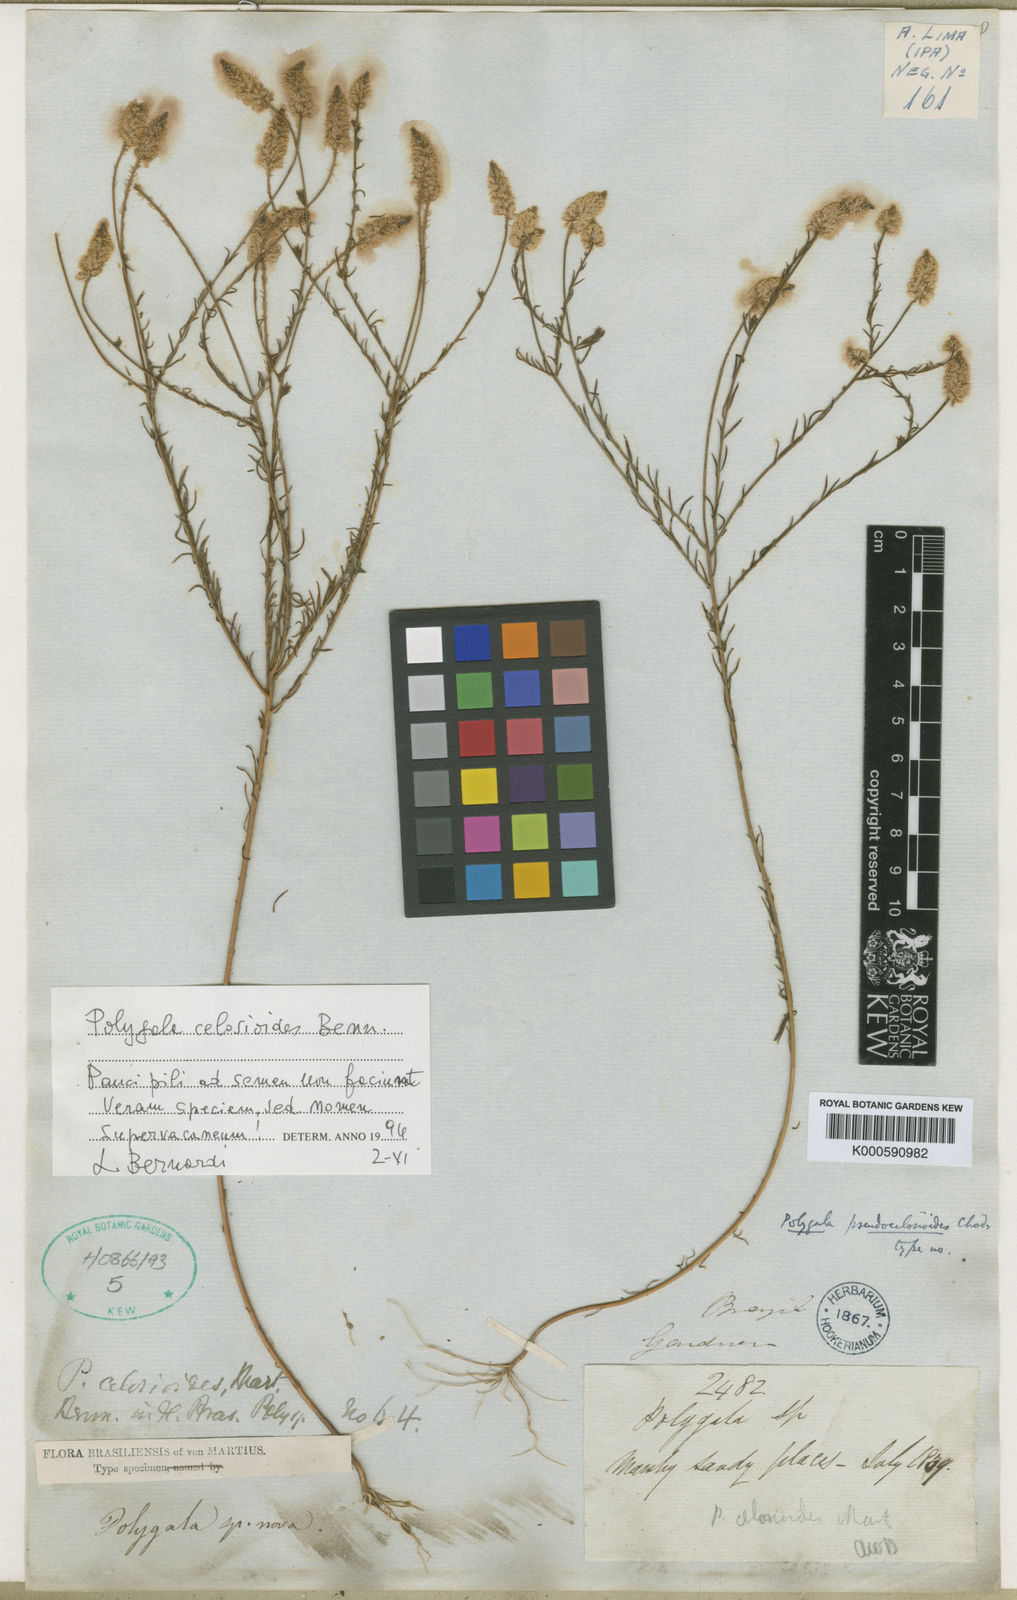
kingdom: Plantae
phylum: Tracheophyta
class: Magnoliopsida
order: Fabales
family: Polygalaceae
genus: Polygala
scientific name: Polygala celosioides
